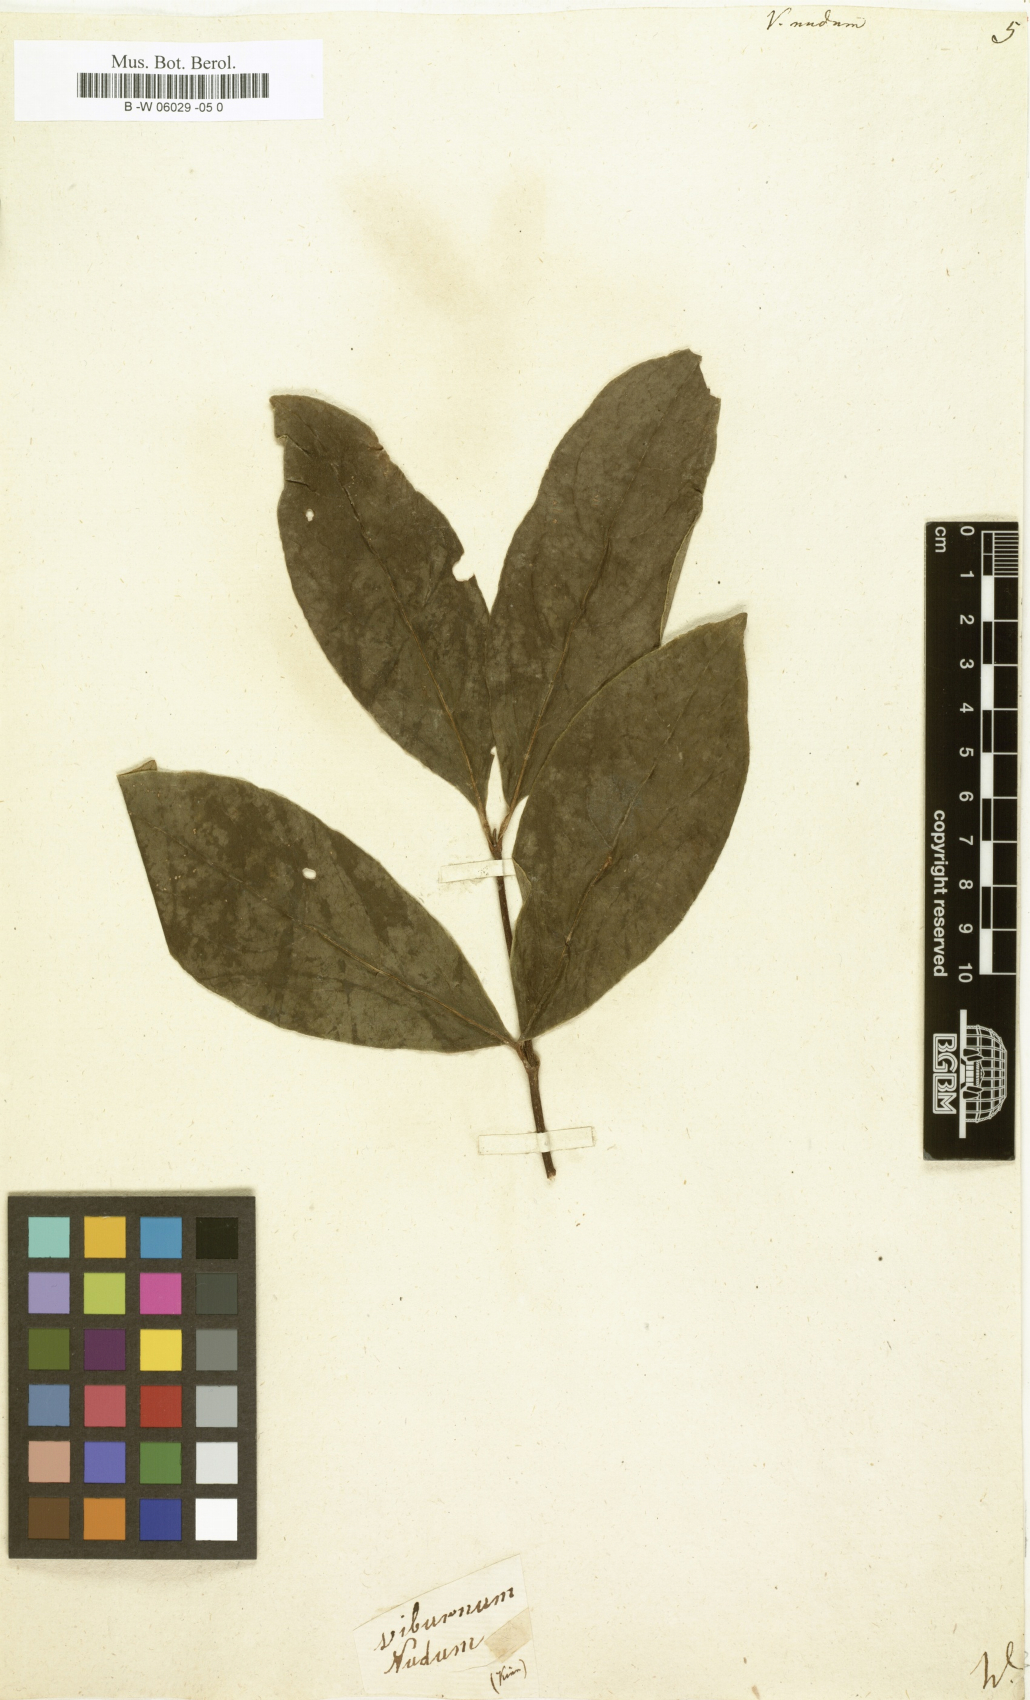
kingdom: Plantae
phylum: Tracheophyta
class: Magnoliopsida
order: Dipsacales
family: Viburnaceae
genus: Viburnum
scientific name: Viburnum nudum
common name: Possum haw
